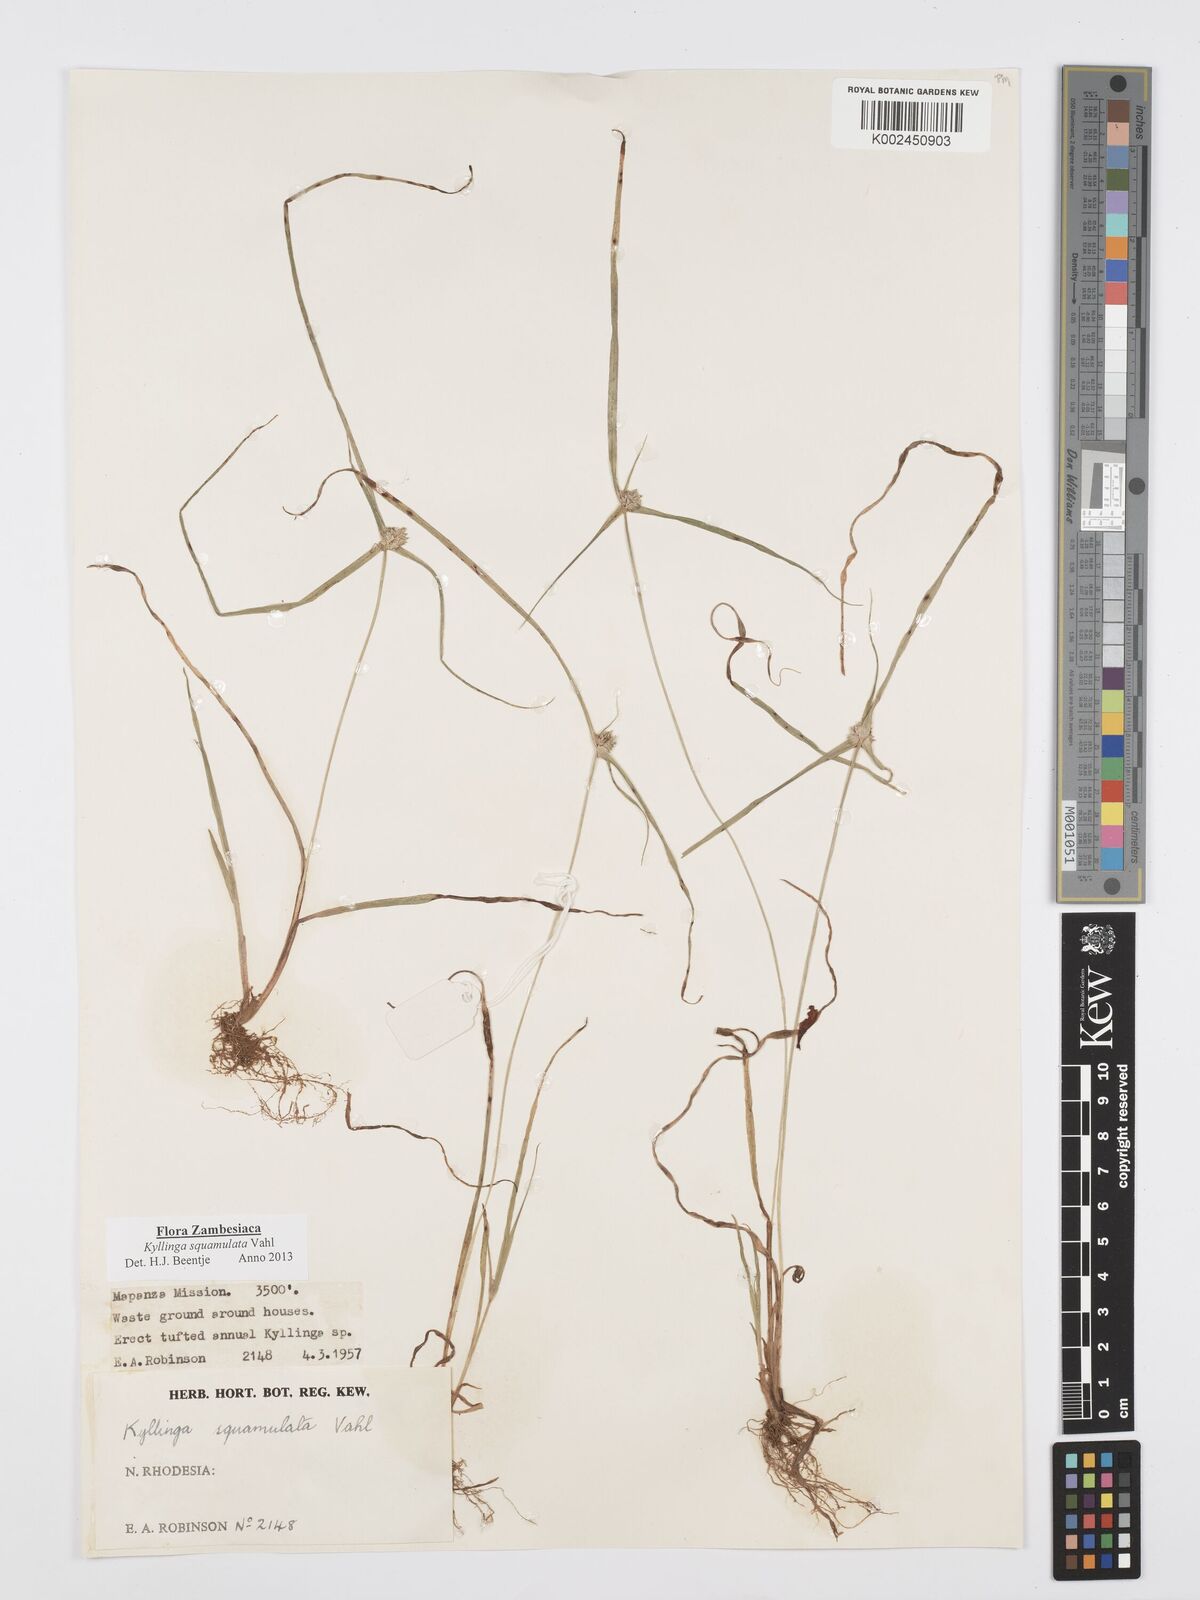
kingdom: Plantae
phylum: Tracheophyta
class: Liliopsida
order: Poales
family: Cyperaceae
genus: Cyperus
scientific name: Cyperus distans
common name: Slender cyperus
